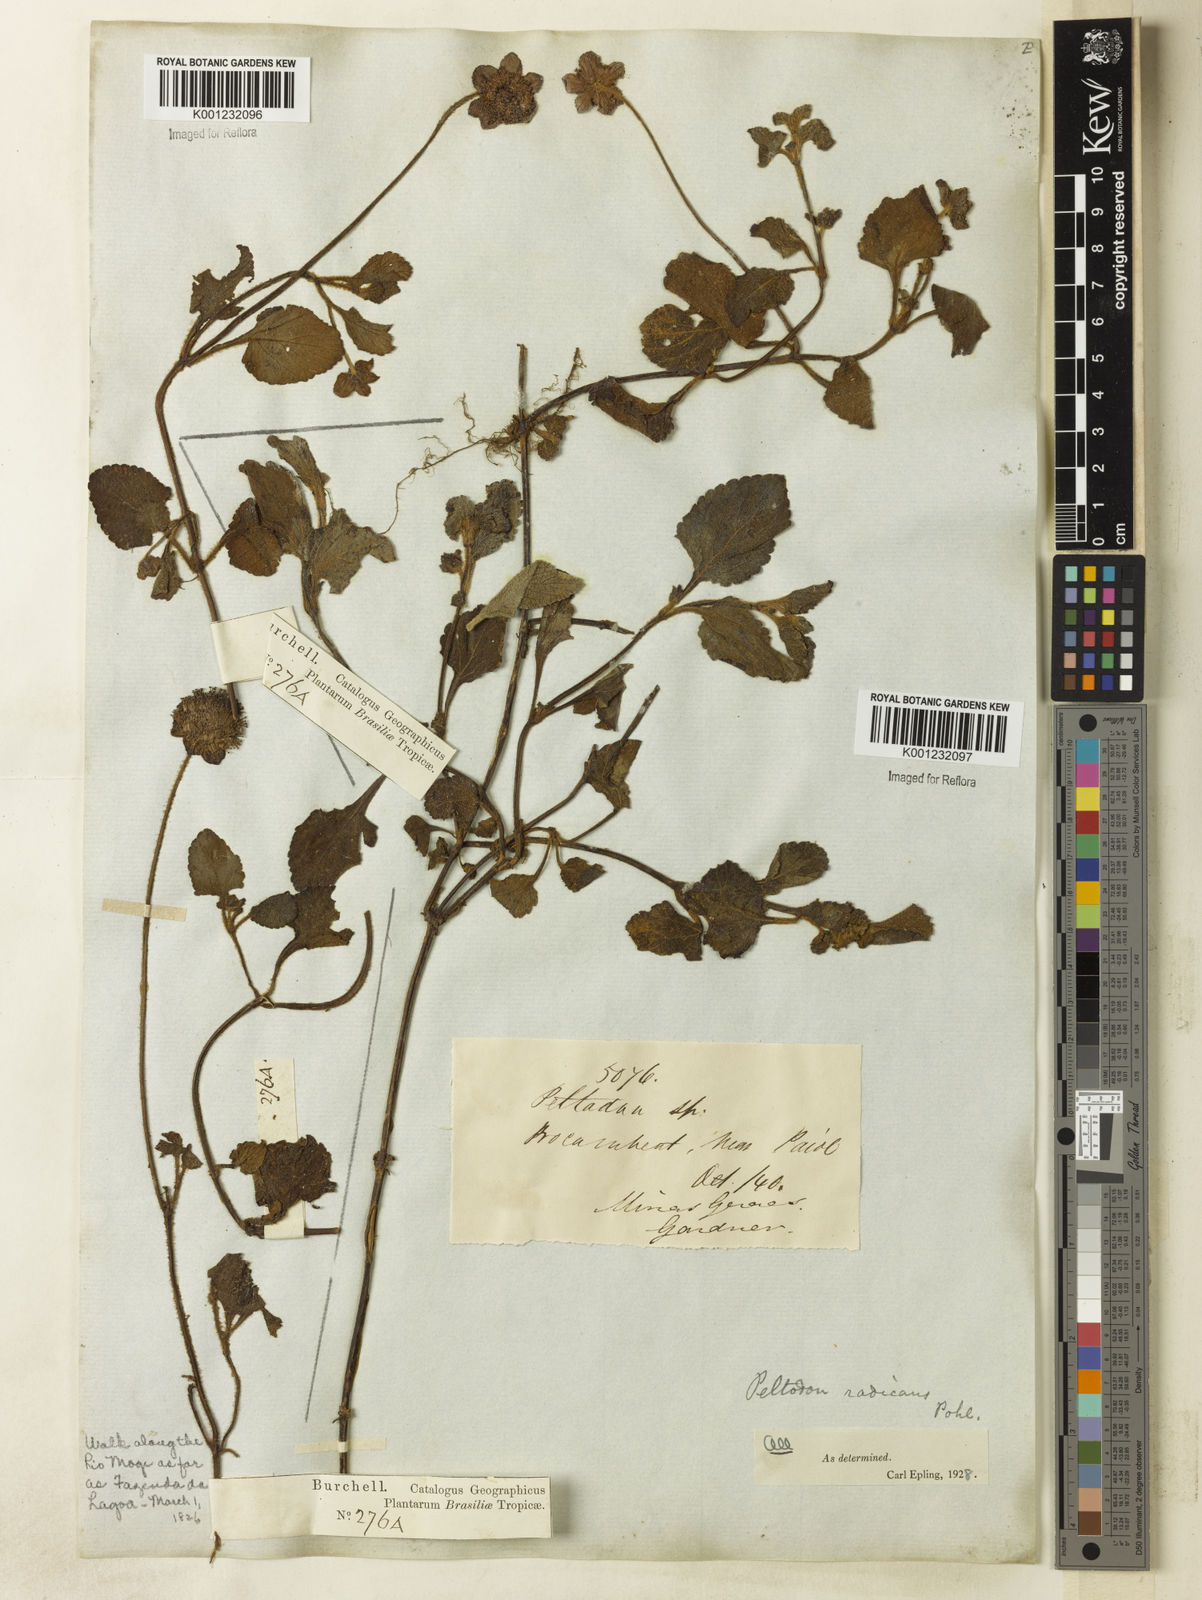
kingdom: Plantae
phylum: Tracheophyta
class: Magnoliopsida
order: Lamiales
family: Lamiaceae
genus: Hyptis
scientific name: Hyptis radicans
